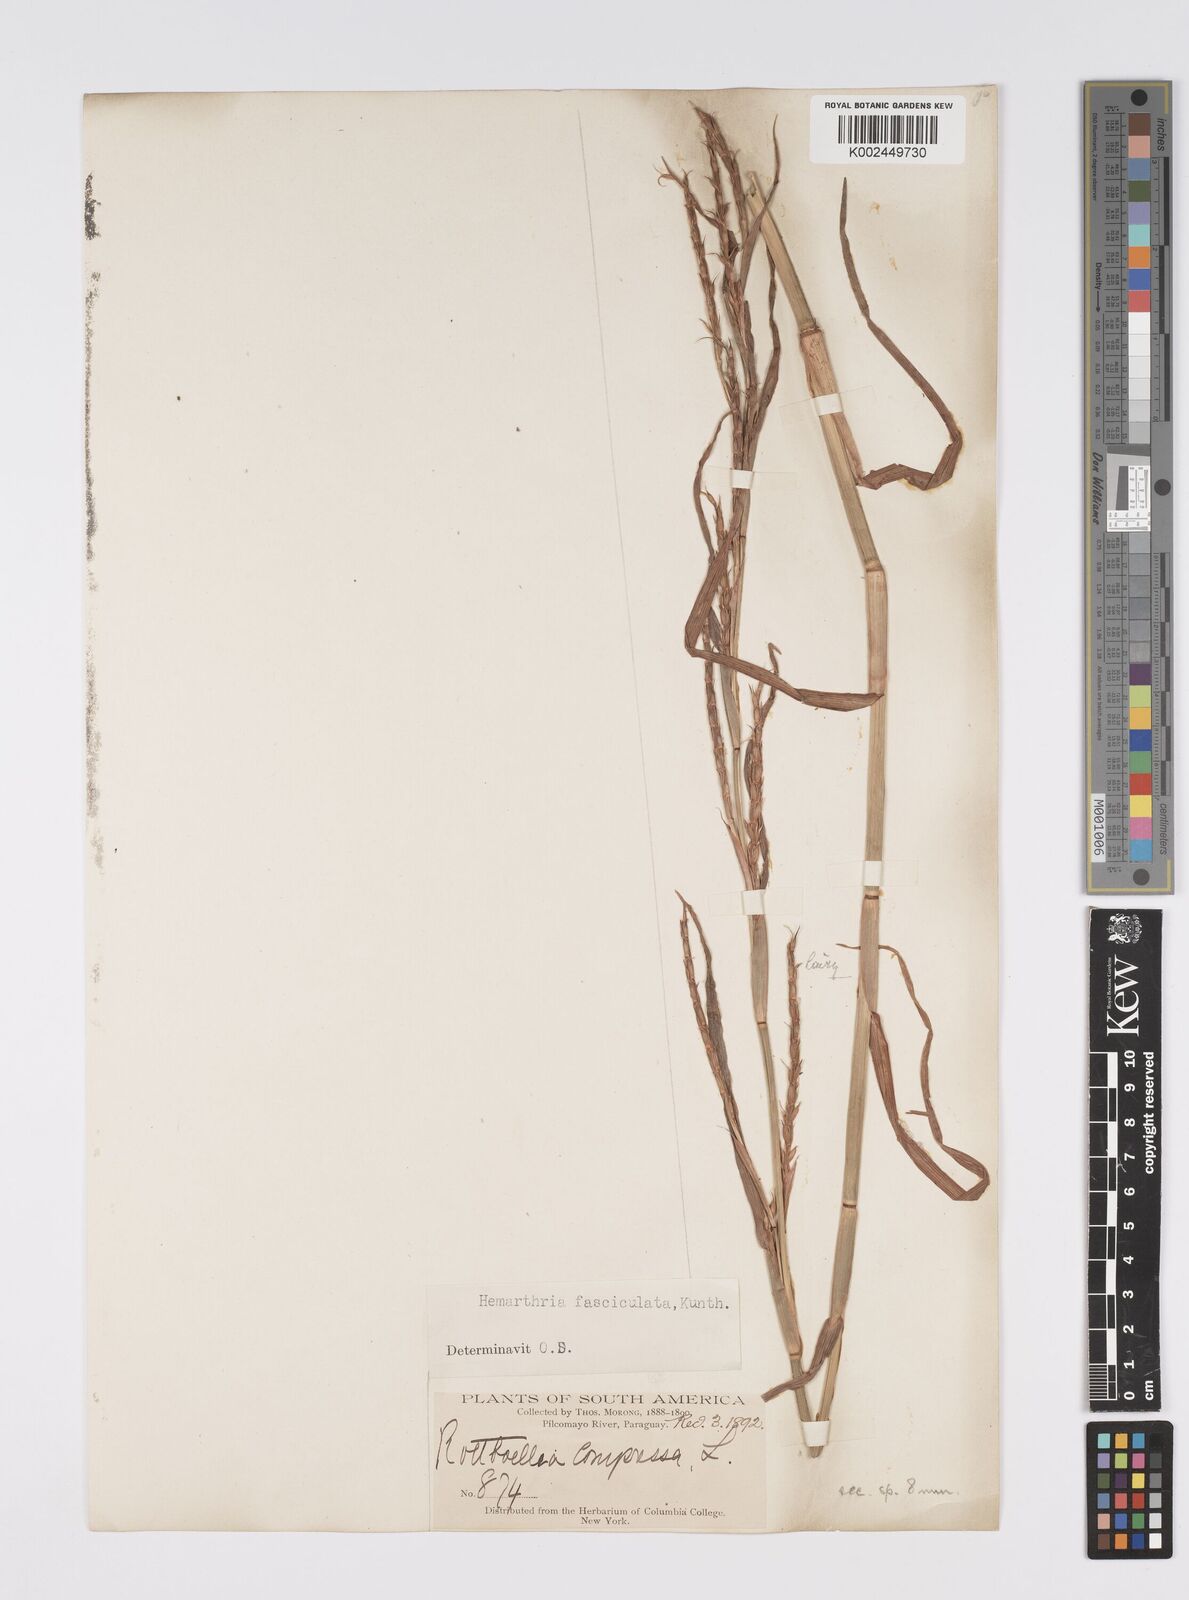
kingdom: Plantae
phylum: Tracheophyta
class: Liliopsida
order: Poales
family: Poaceae
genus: Hemarthria
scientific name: Hemarthria altissima
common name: African jointgrass
